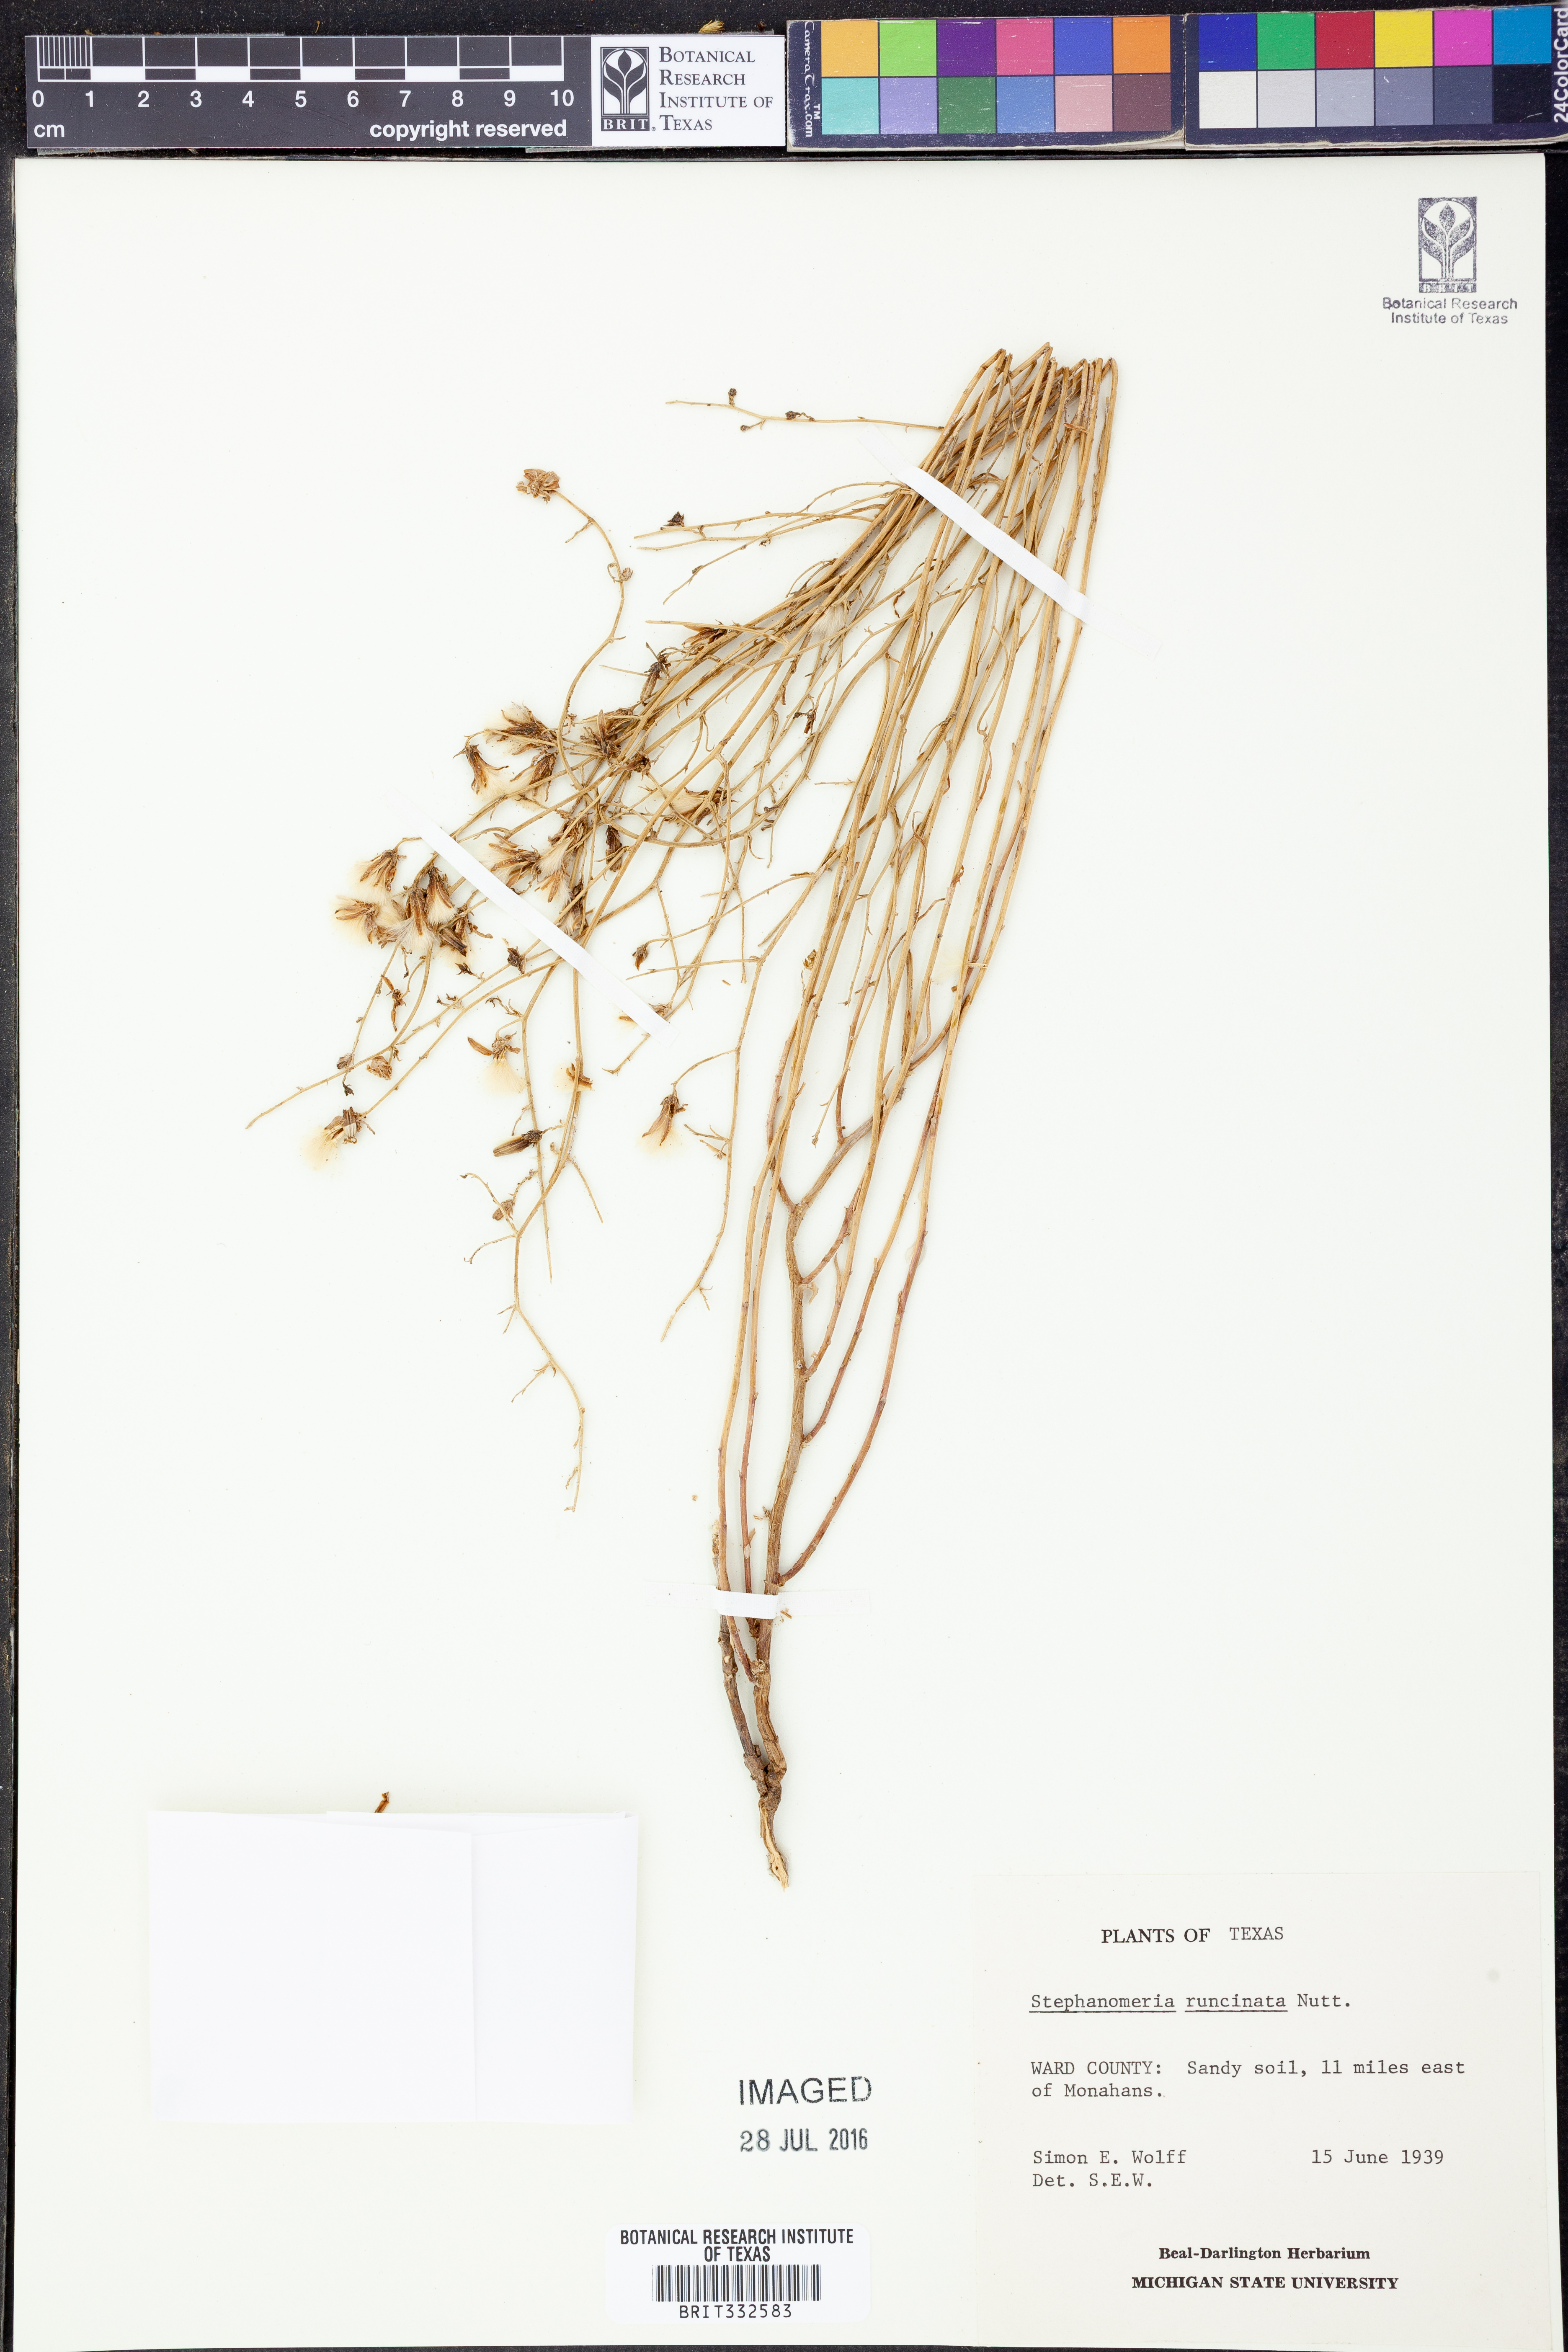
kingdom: Plantae
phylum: Tracheophyta
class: Magnoliopsida
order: Asterales
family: Asteraceae
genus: Stephanomeria
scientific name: Stephanomeria runcinata
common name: Desert wirelettuce
